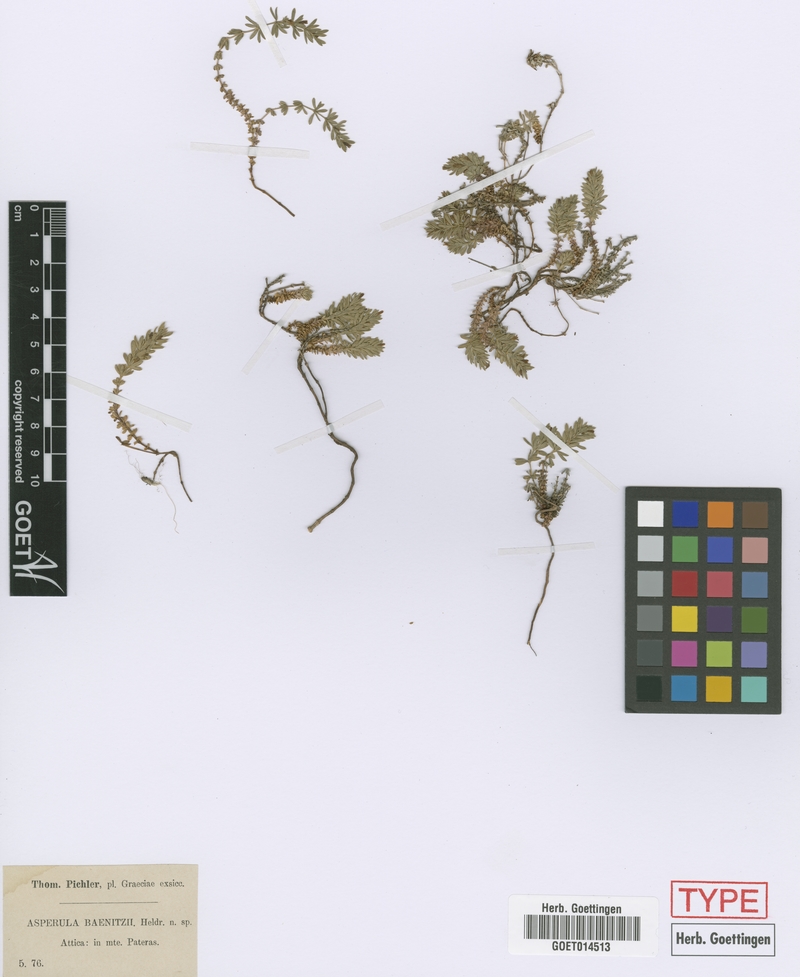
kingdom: Plantae
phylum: Tracheophyta
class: Magnoliopsida
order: Gentianales
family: Rubiaceae
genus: Thliphthisa
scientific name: Thliphthisa baenitzii
